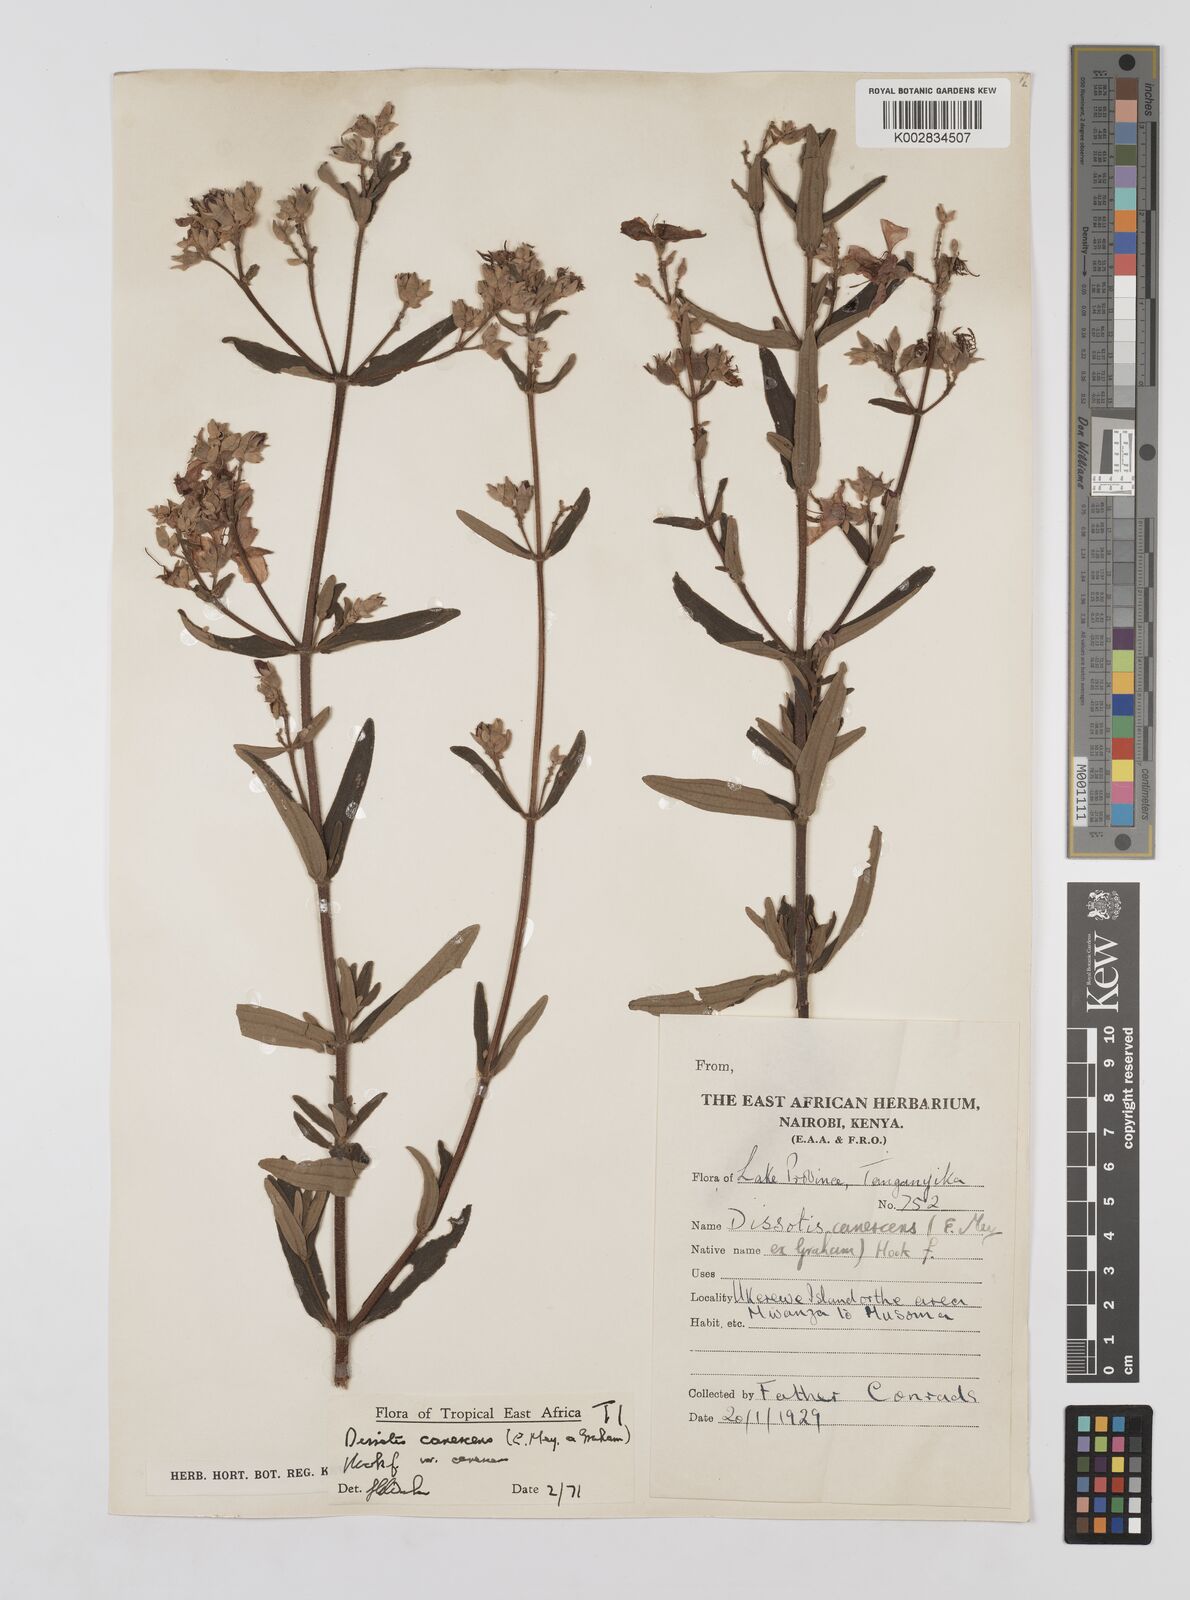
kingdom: Plantae
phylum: Tracheophyta
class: Magnoliopsida
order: Myrtales
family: Melastomataceae
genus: Argyrella
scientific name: Argyrella canescens
